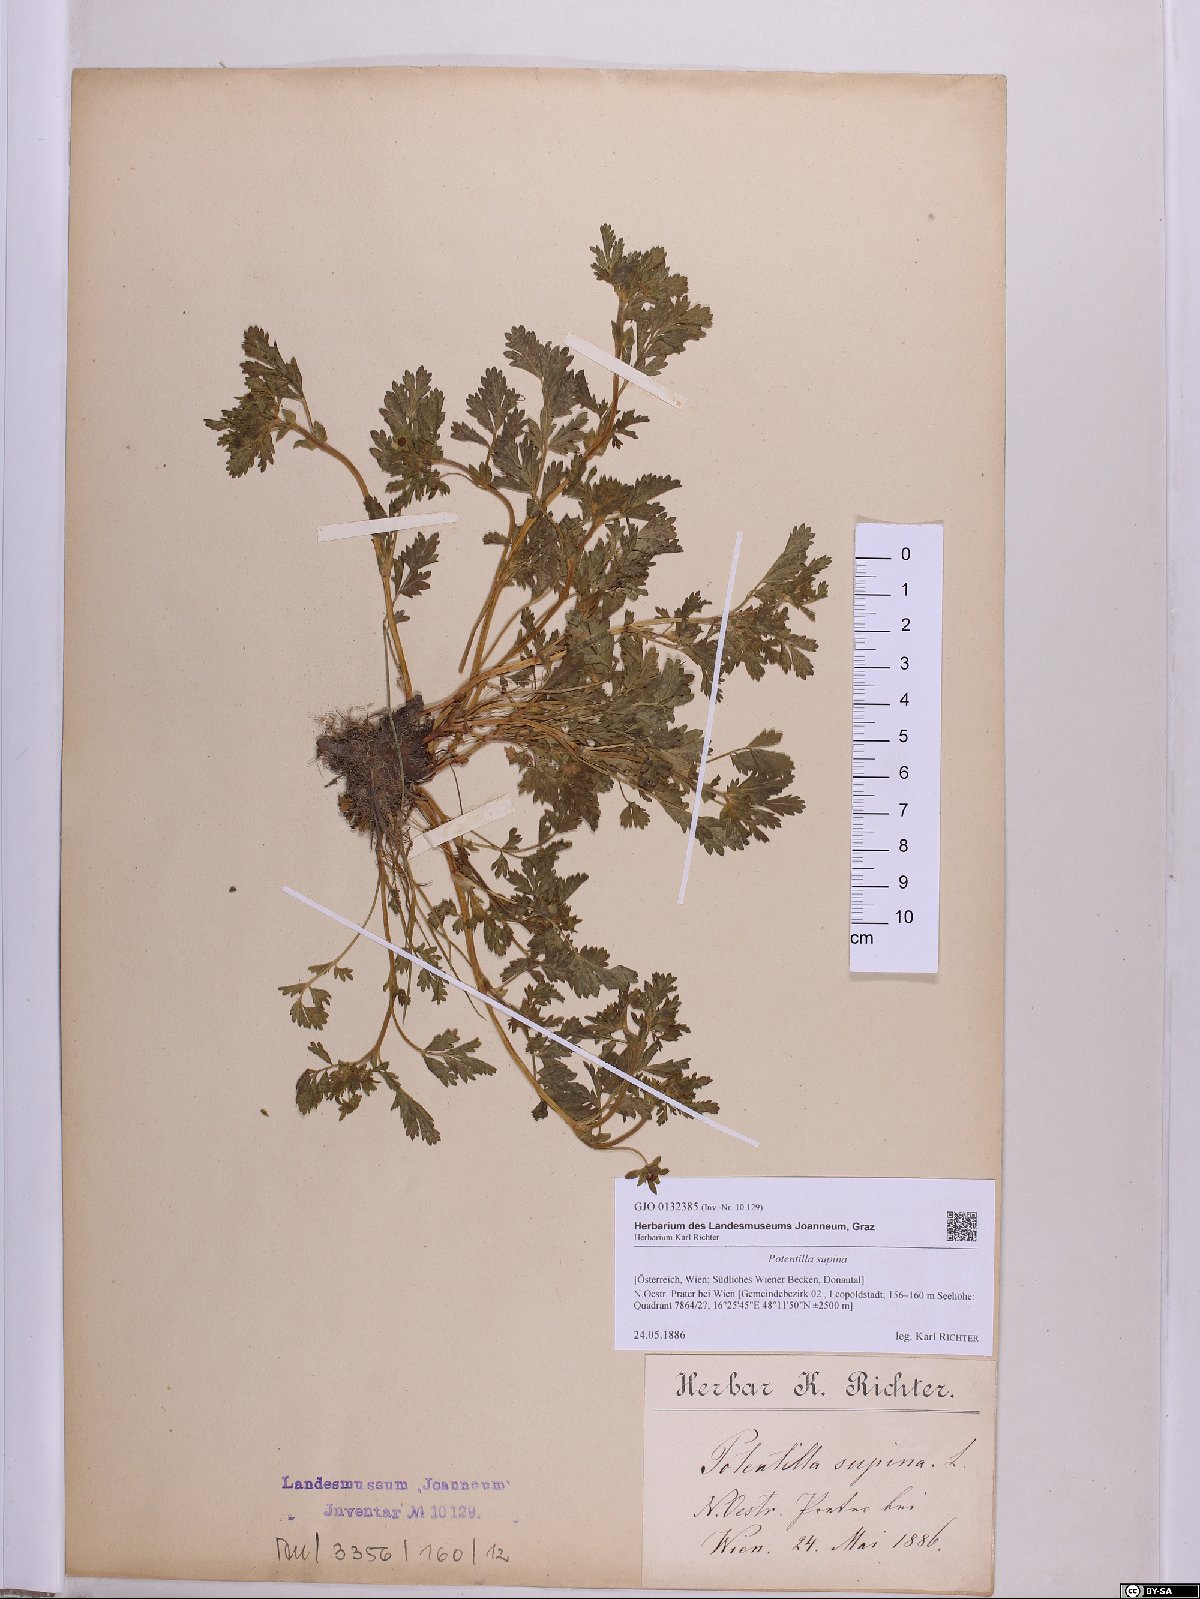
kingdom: Plantae
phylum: Tracheophyta
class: Magnoliopsida
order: Rosales
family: Rosaceae
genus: Potentilla
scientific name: Potentilla supina
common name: Prostrate cinquefoil
